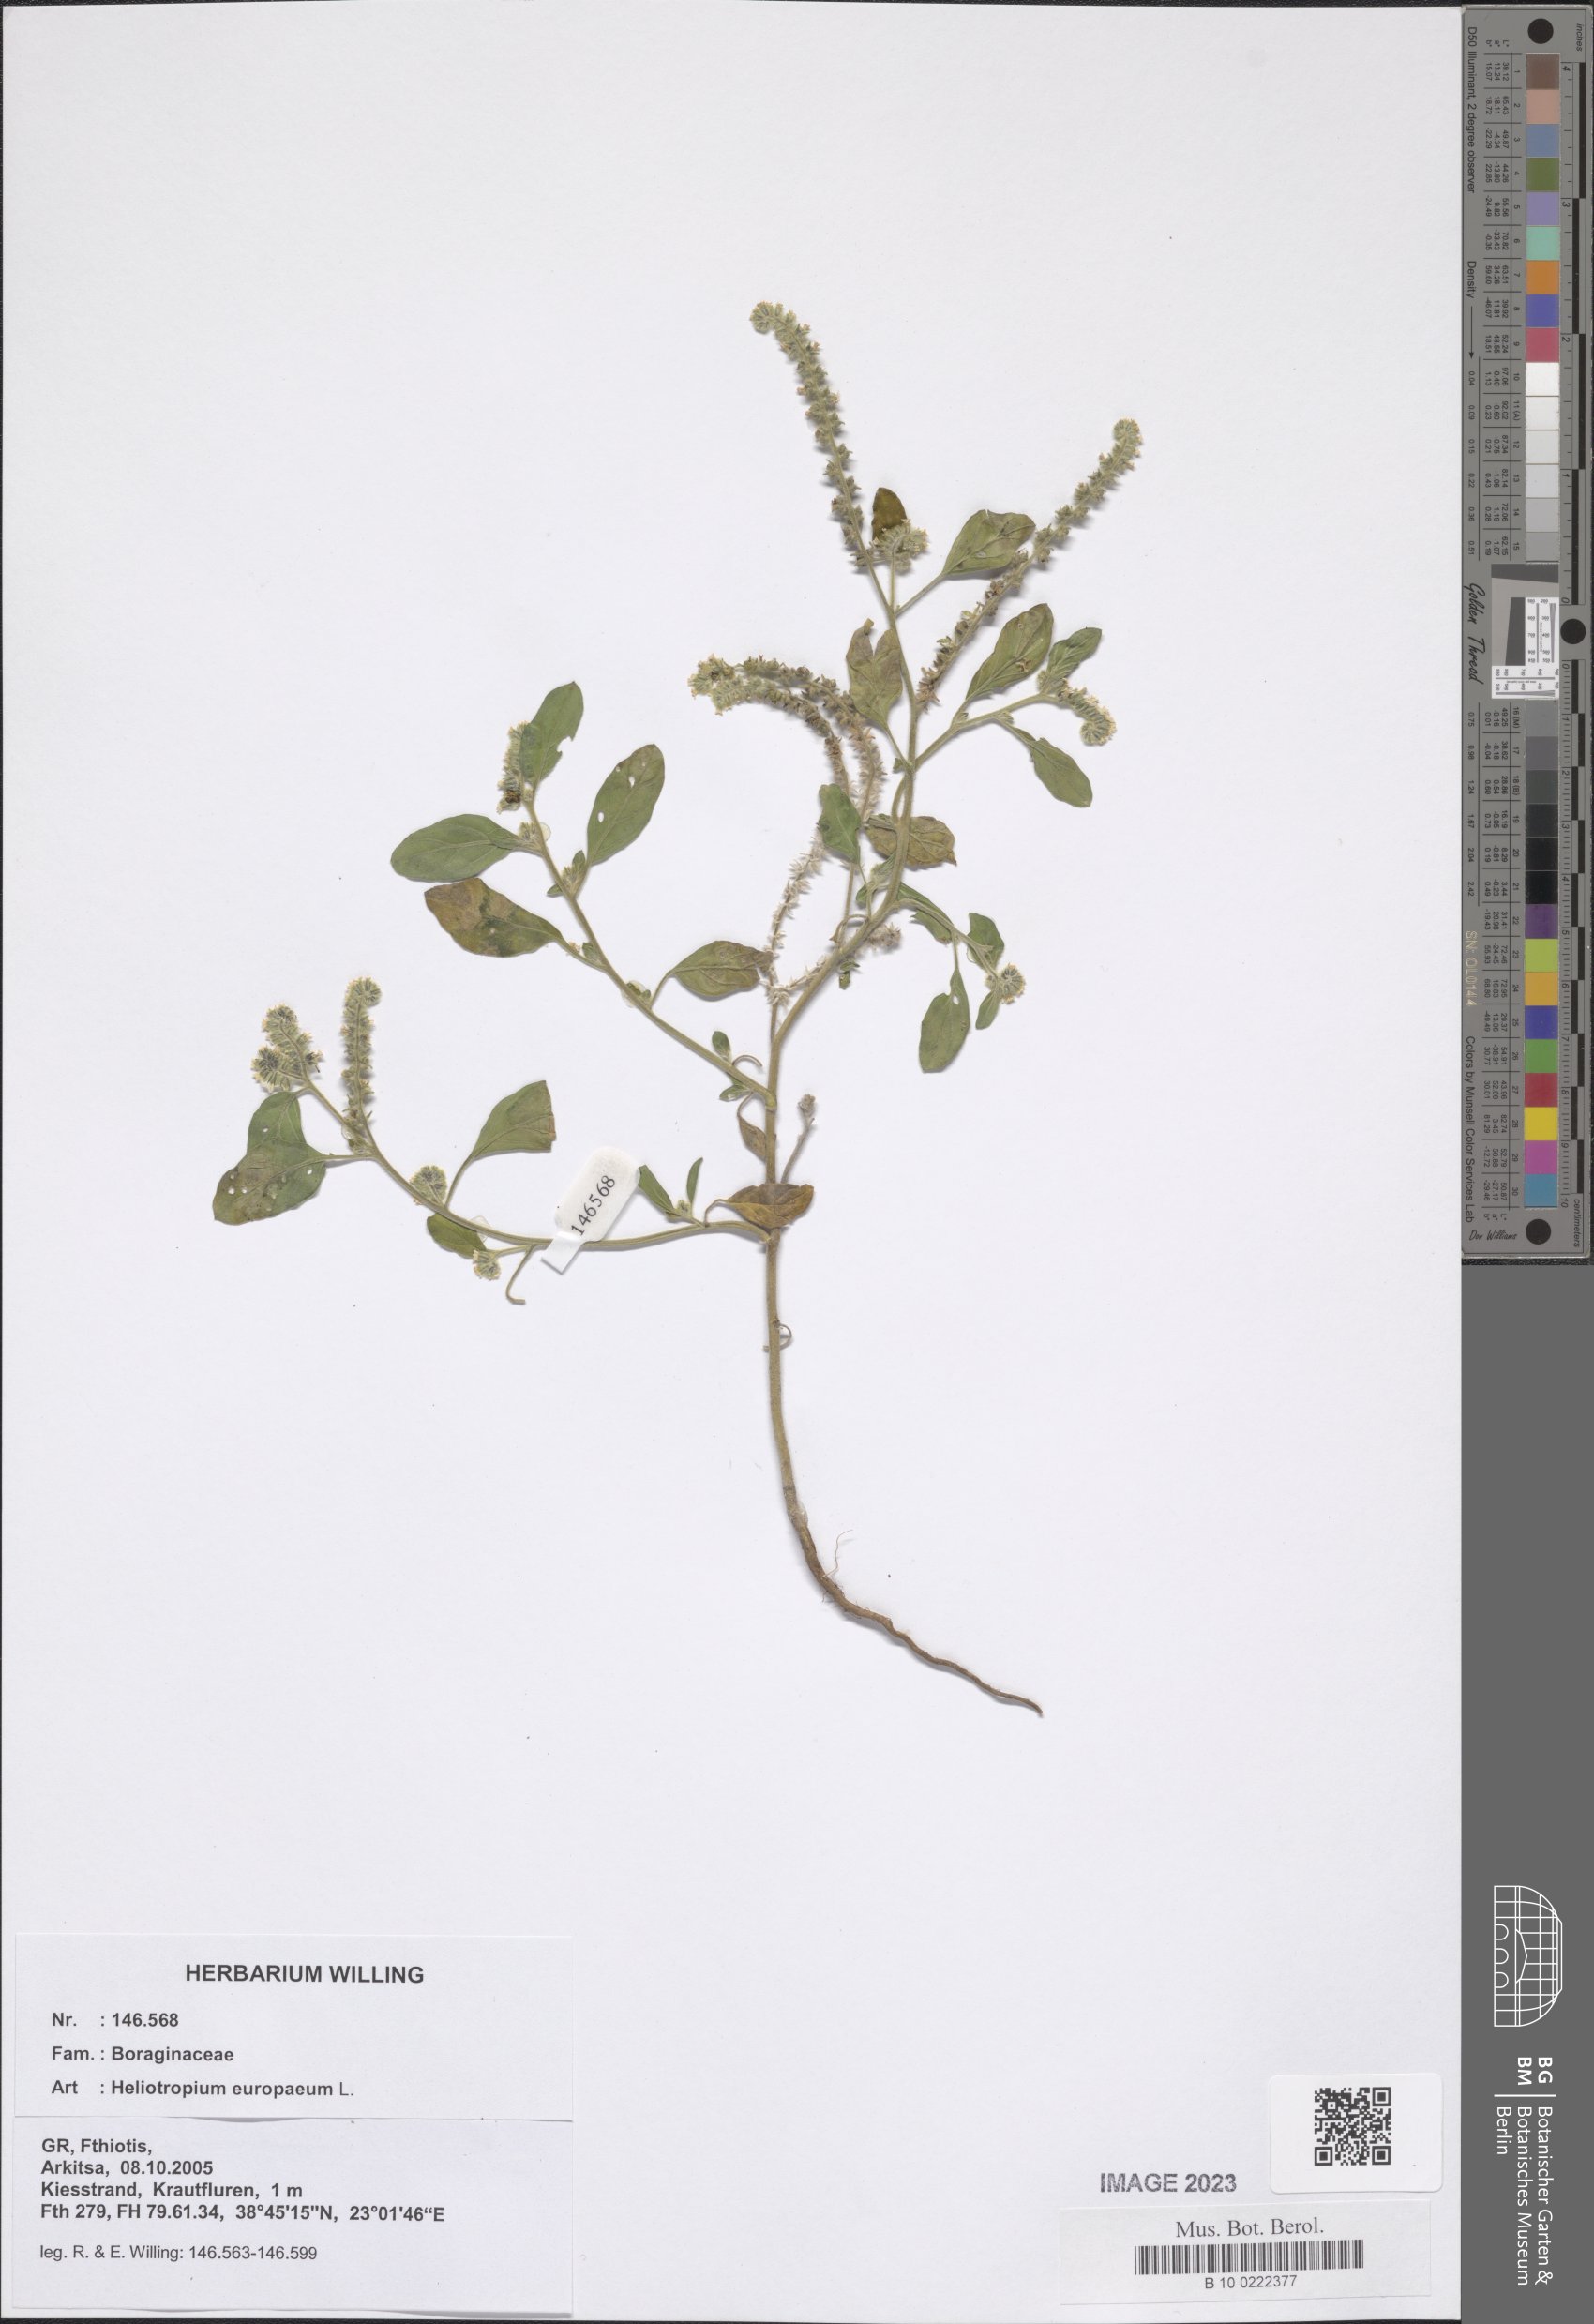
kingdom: Plantae
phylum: Tracheophyta
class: Magnoliopsida
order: Boraginales
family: Heliotropiaceae
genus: Heliotropium
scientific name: Heliotropium europaeum
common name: European heliotrope
